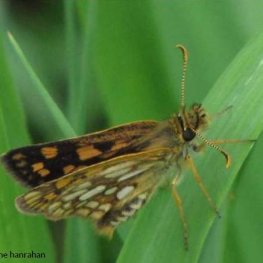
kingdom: Animalia
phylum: Arthropoda
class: Insecta
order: Lepidoptera
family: Hesperiidae
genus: Carterocephalus
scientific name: Carterocephalus palaemon
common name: Chequered Skipper
